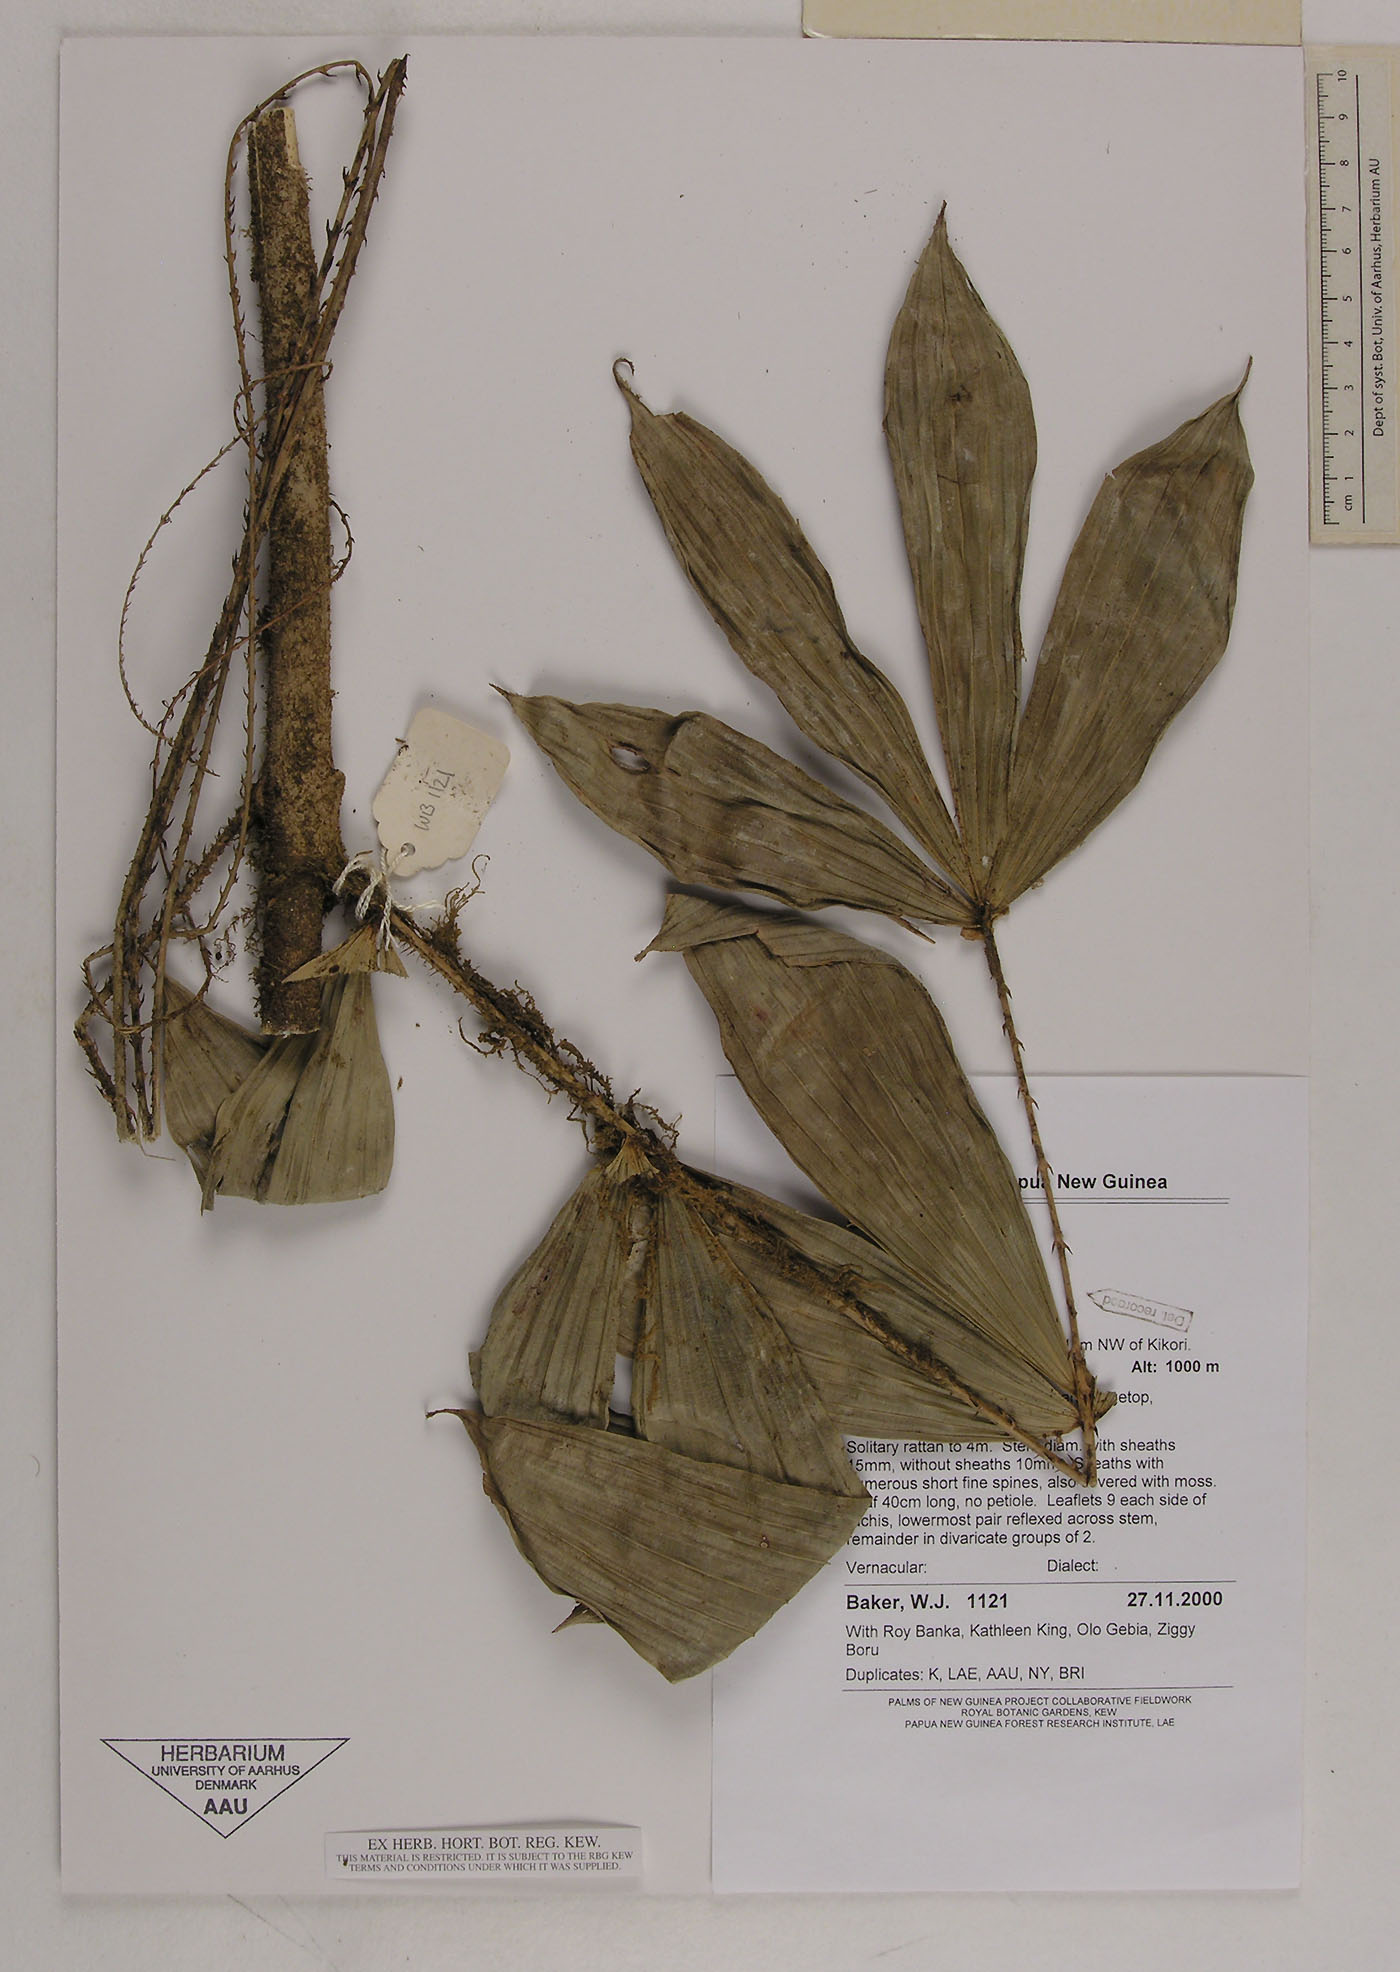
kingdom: Plantae
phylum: Tracheophyta
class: Liliopsida
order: Arecales
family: Arecaceae
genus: Calamus
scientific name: Calamus
